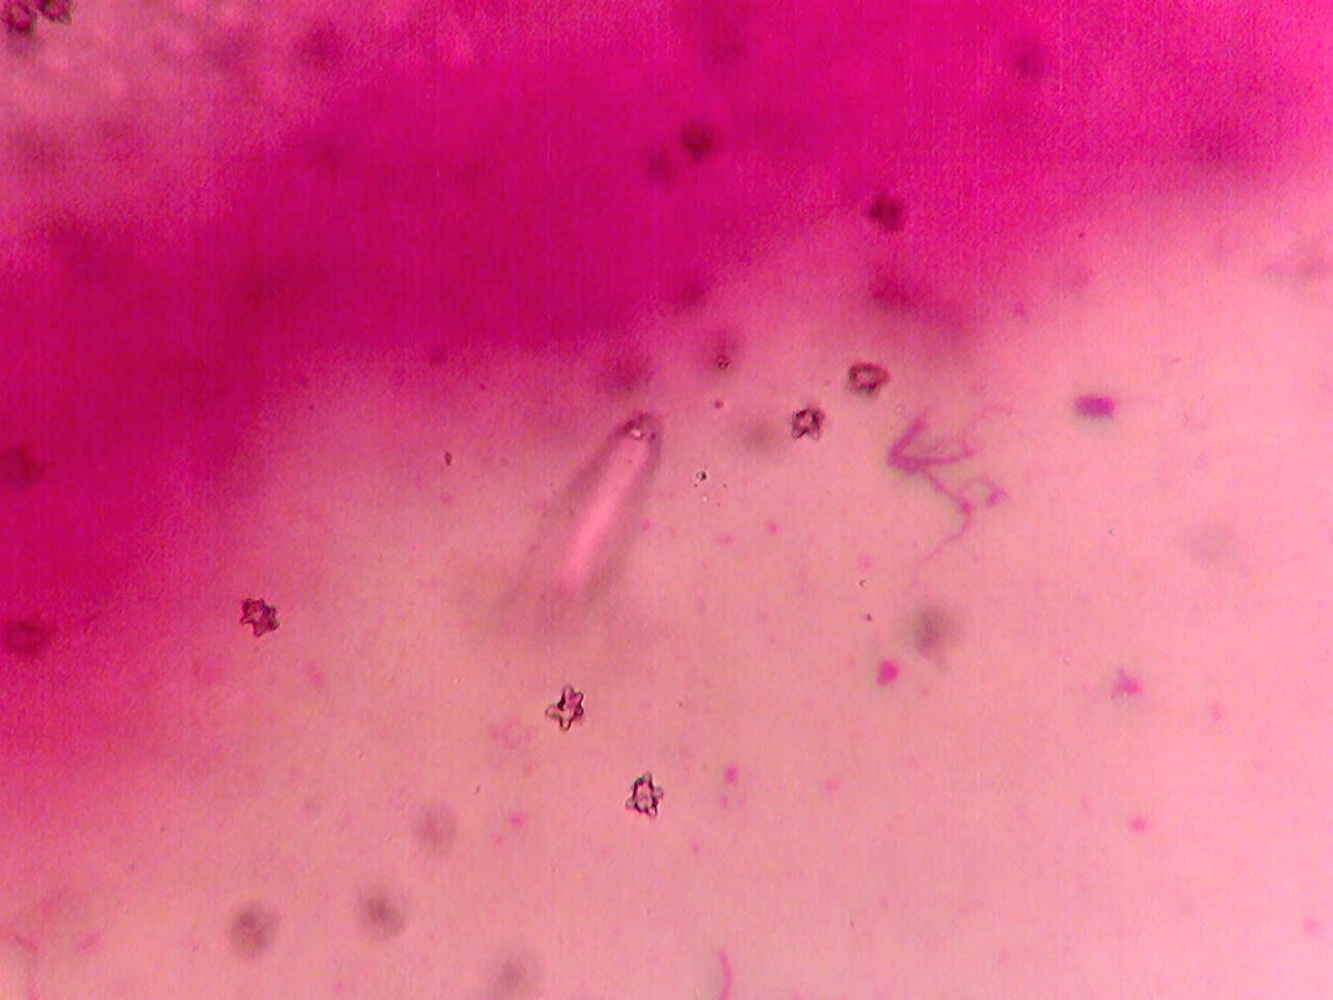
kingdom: Fungi
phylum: Basidiomycota
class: Agaricomycetes
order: Agaricales
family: Inocybaceae
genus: Inocybe
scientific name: Inocybe napipes
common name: roeknoldet trævlhat
